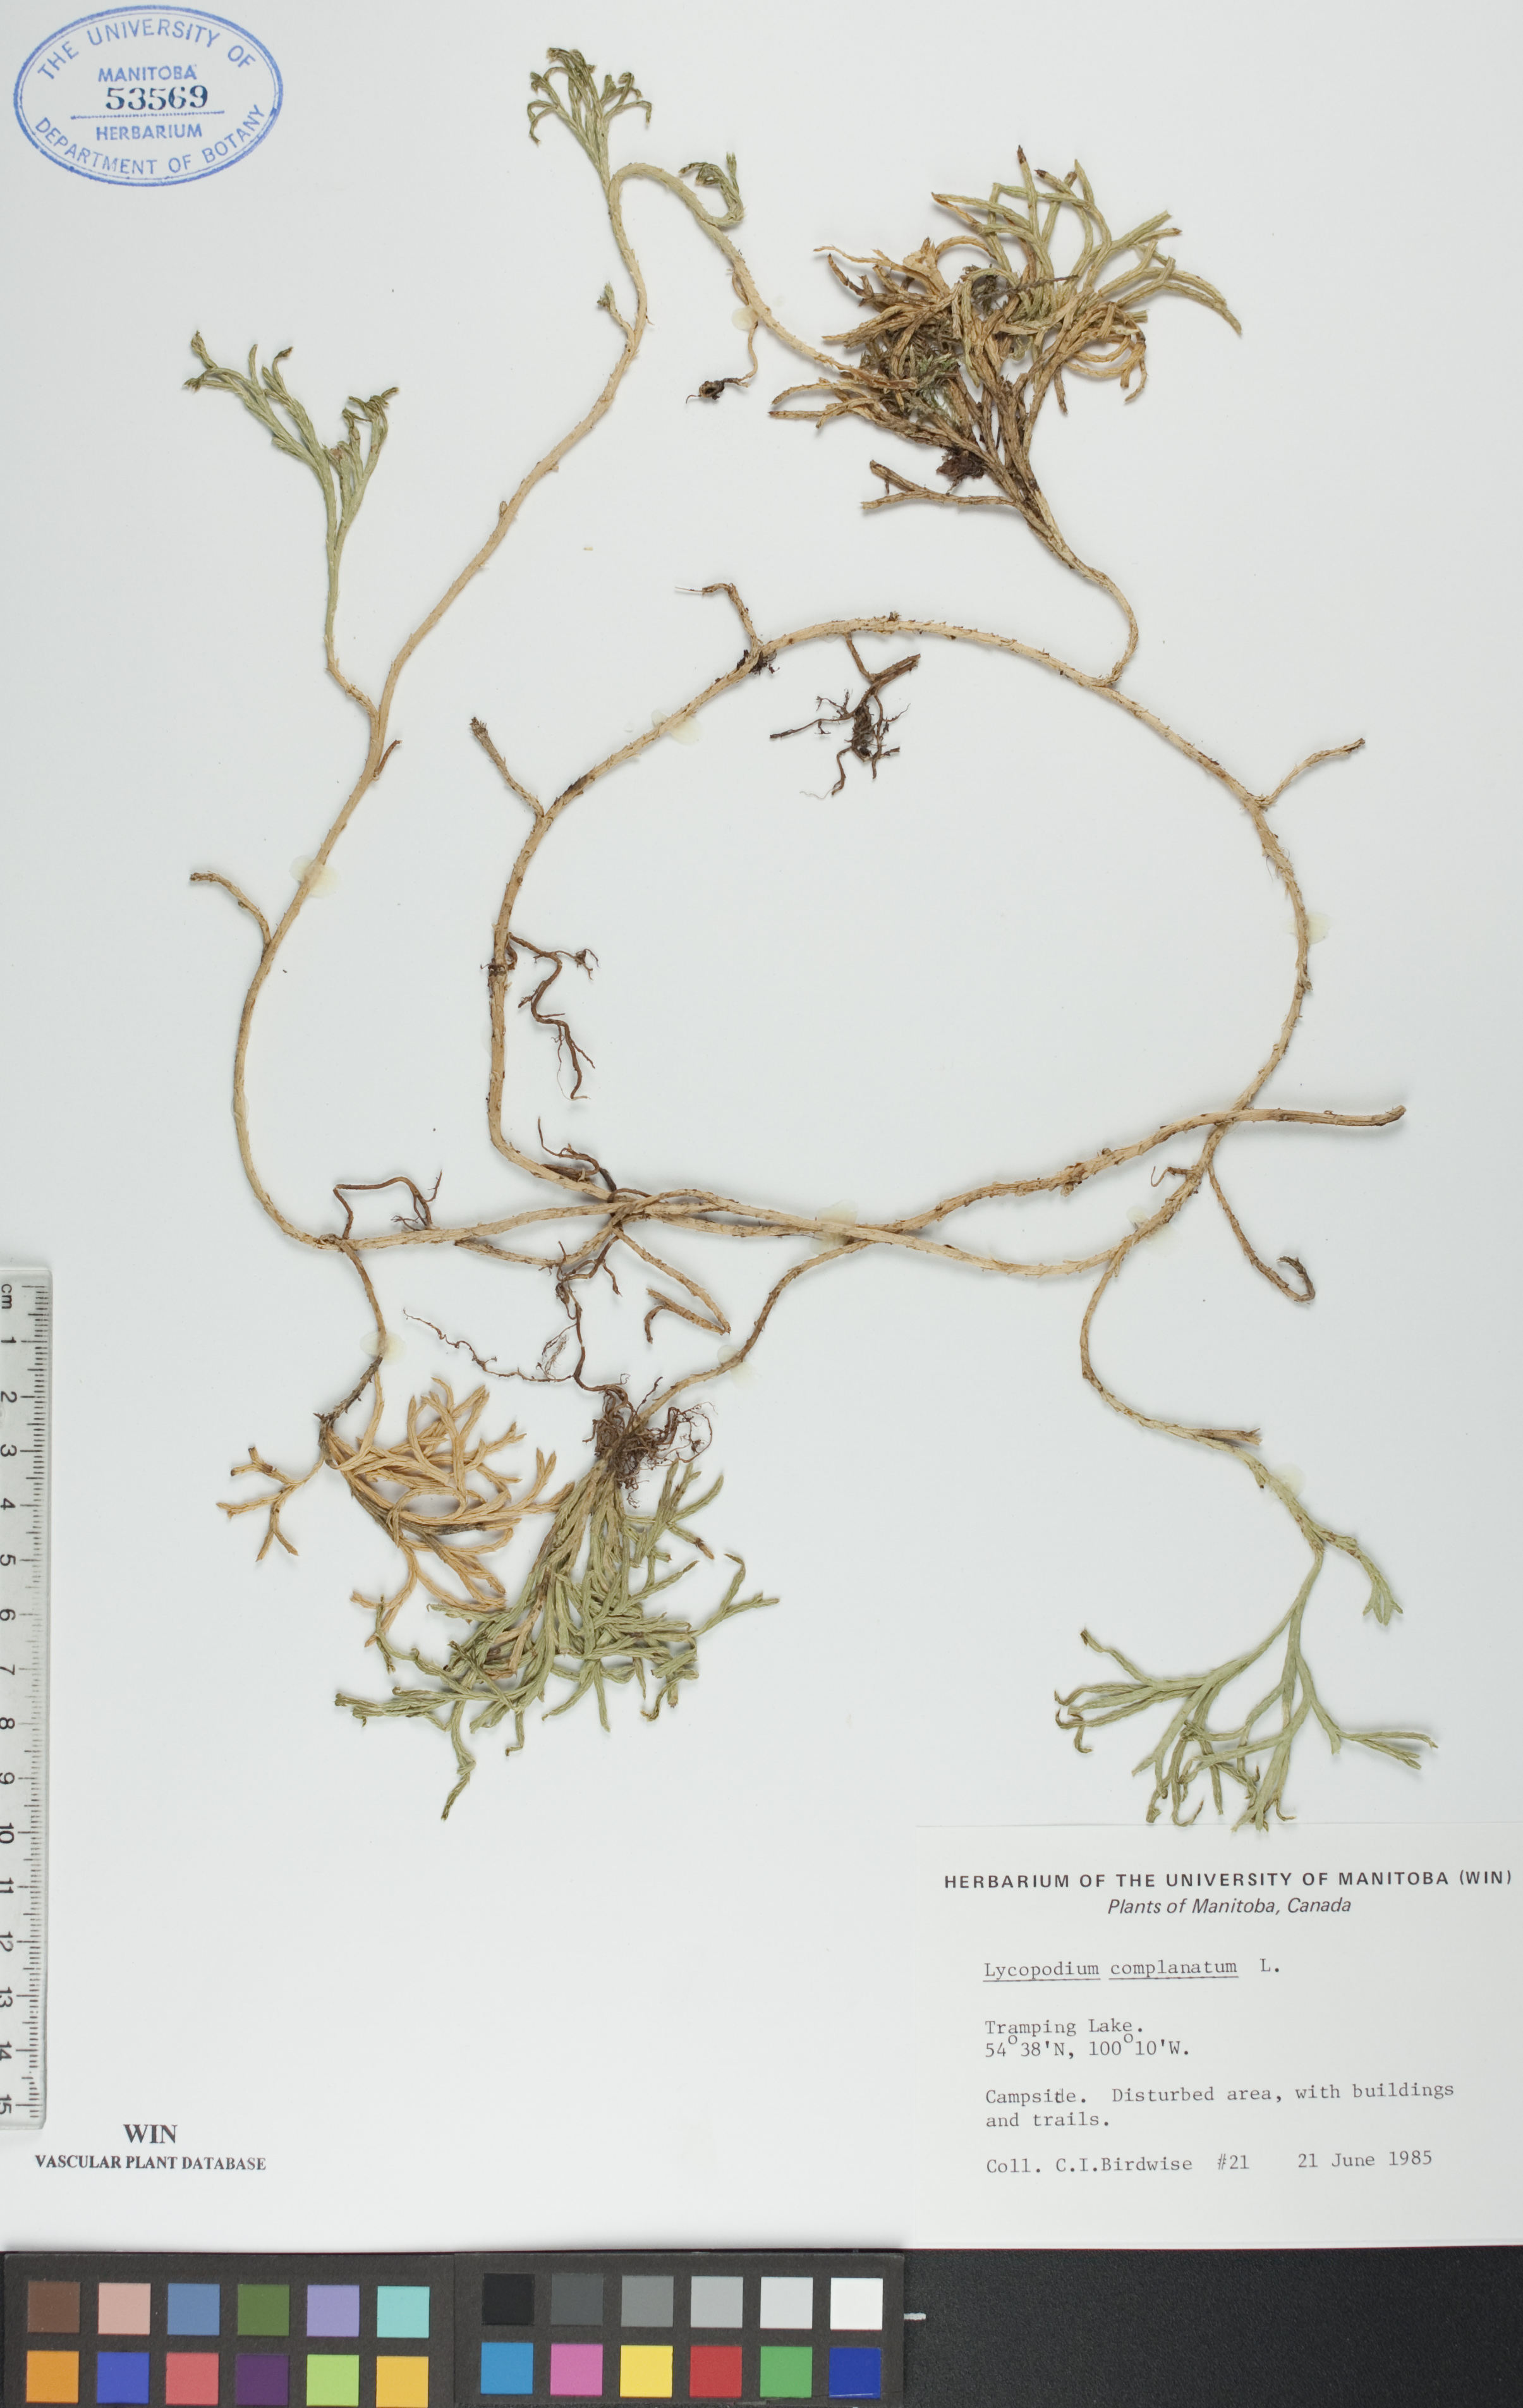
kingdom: Plantae
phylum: Tracheophyta
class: Lycopodiopsida
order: Lycopodiales
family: Lycopodiaceae
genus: Diphasiastrum
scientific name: Diphasiastrum
